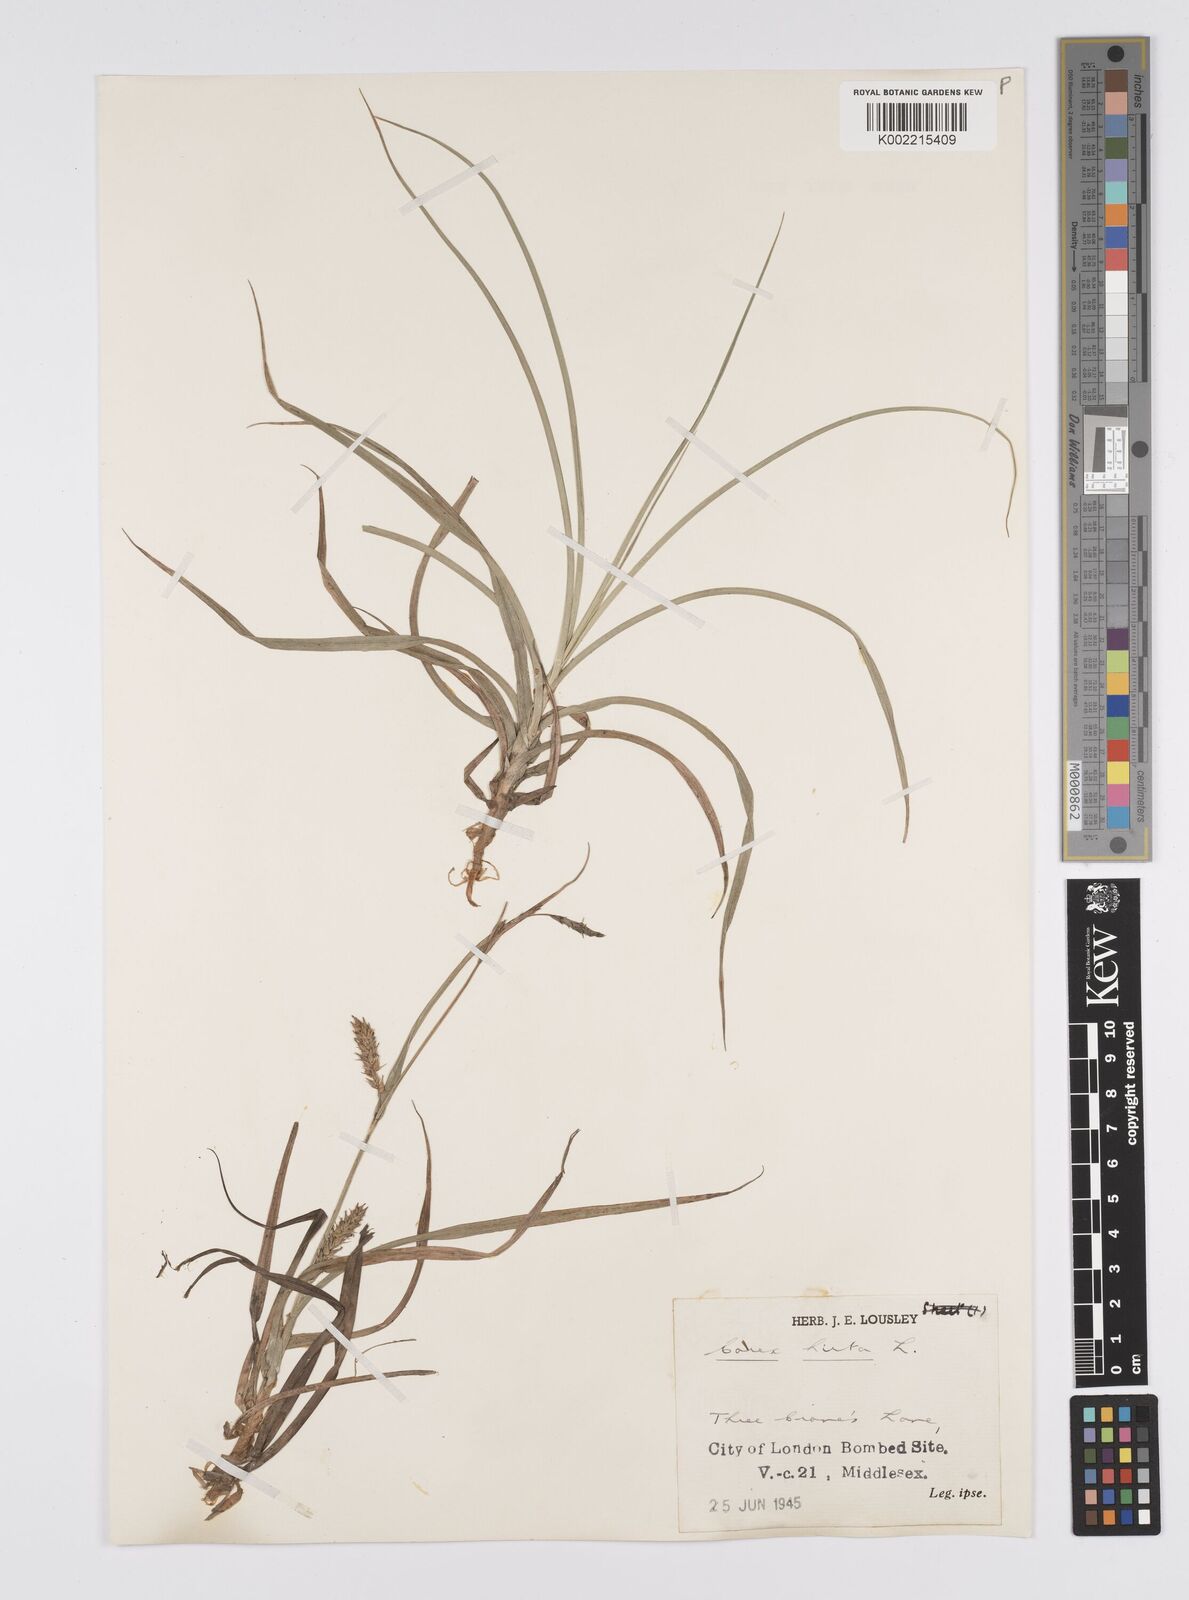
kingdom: Plantae
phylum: Tracheophyta
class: Liliopsida
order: Poales
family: Cyperaceae
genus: Carex
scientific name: Carex hirta
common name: Hairy sedge
